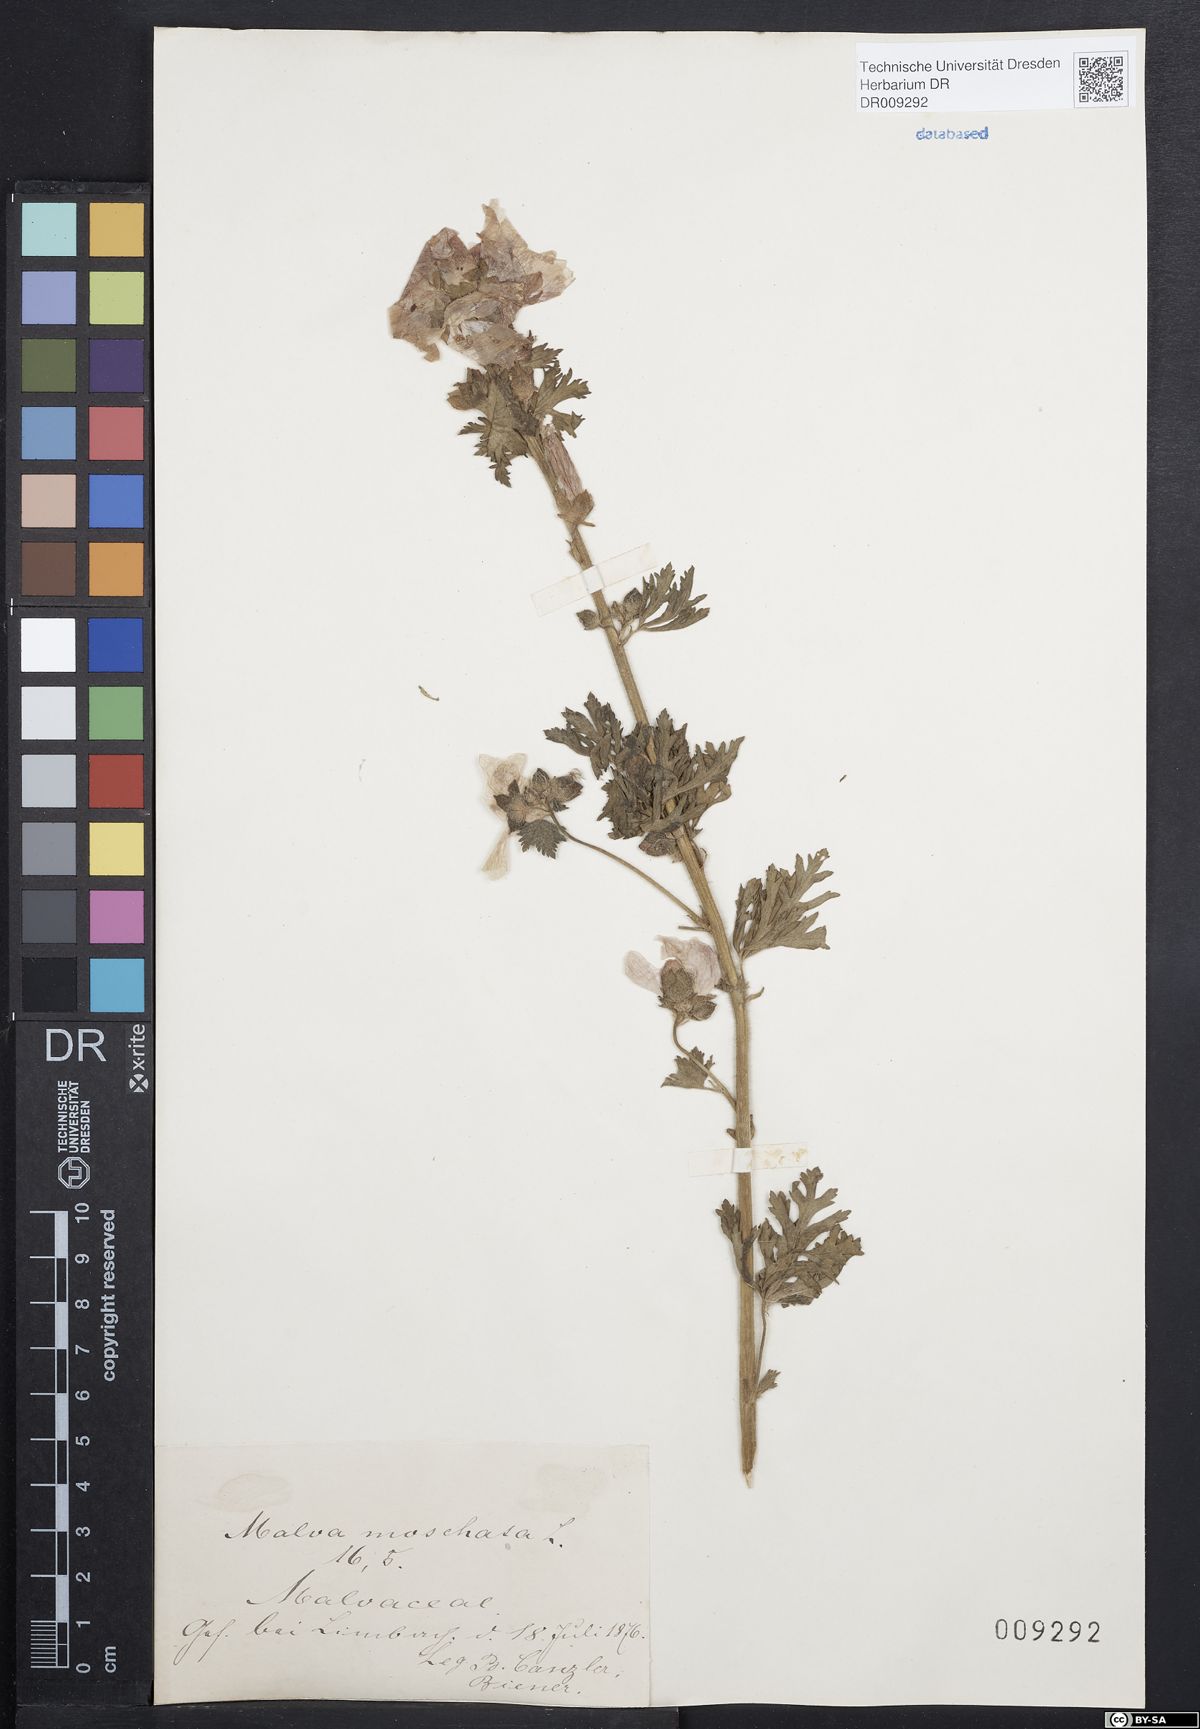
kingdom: Plantae
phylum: Tracheophyta
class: Magnoliopsida
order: Malvales
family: Malvaceae
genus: Malva
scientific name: Malva moschata
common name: Musk mallow
